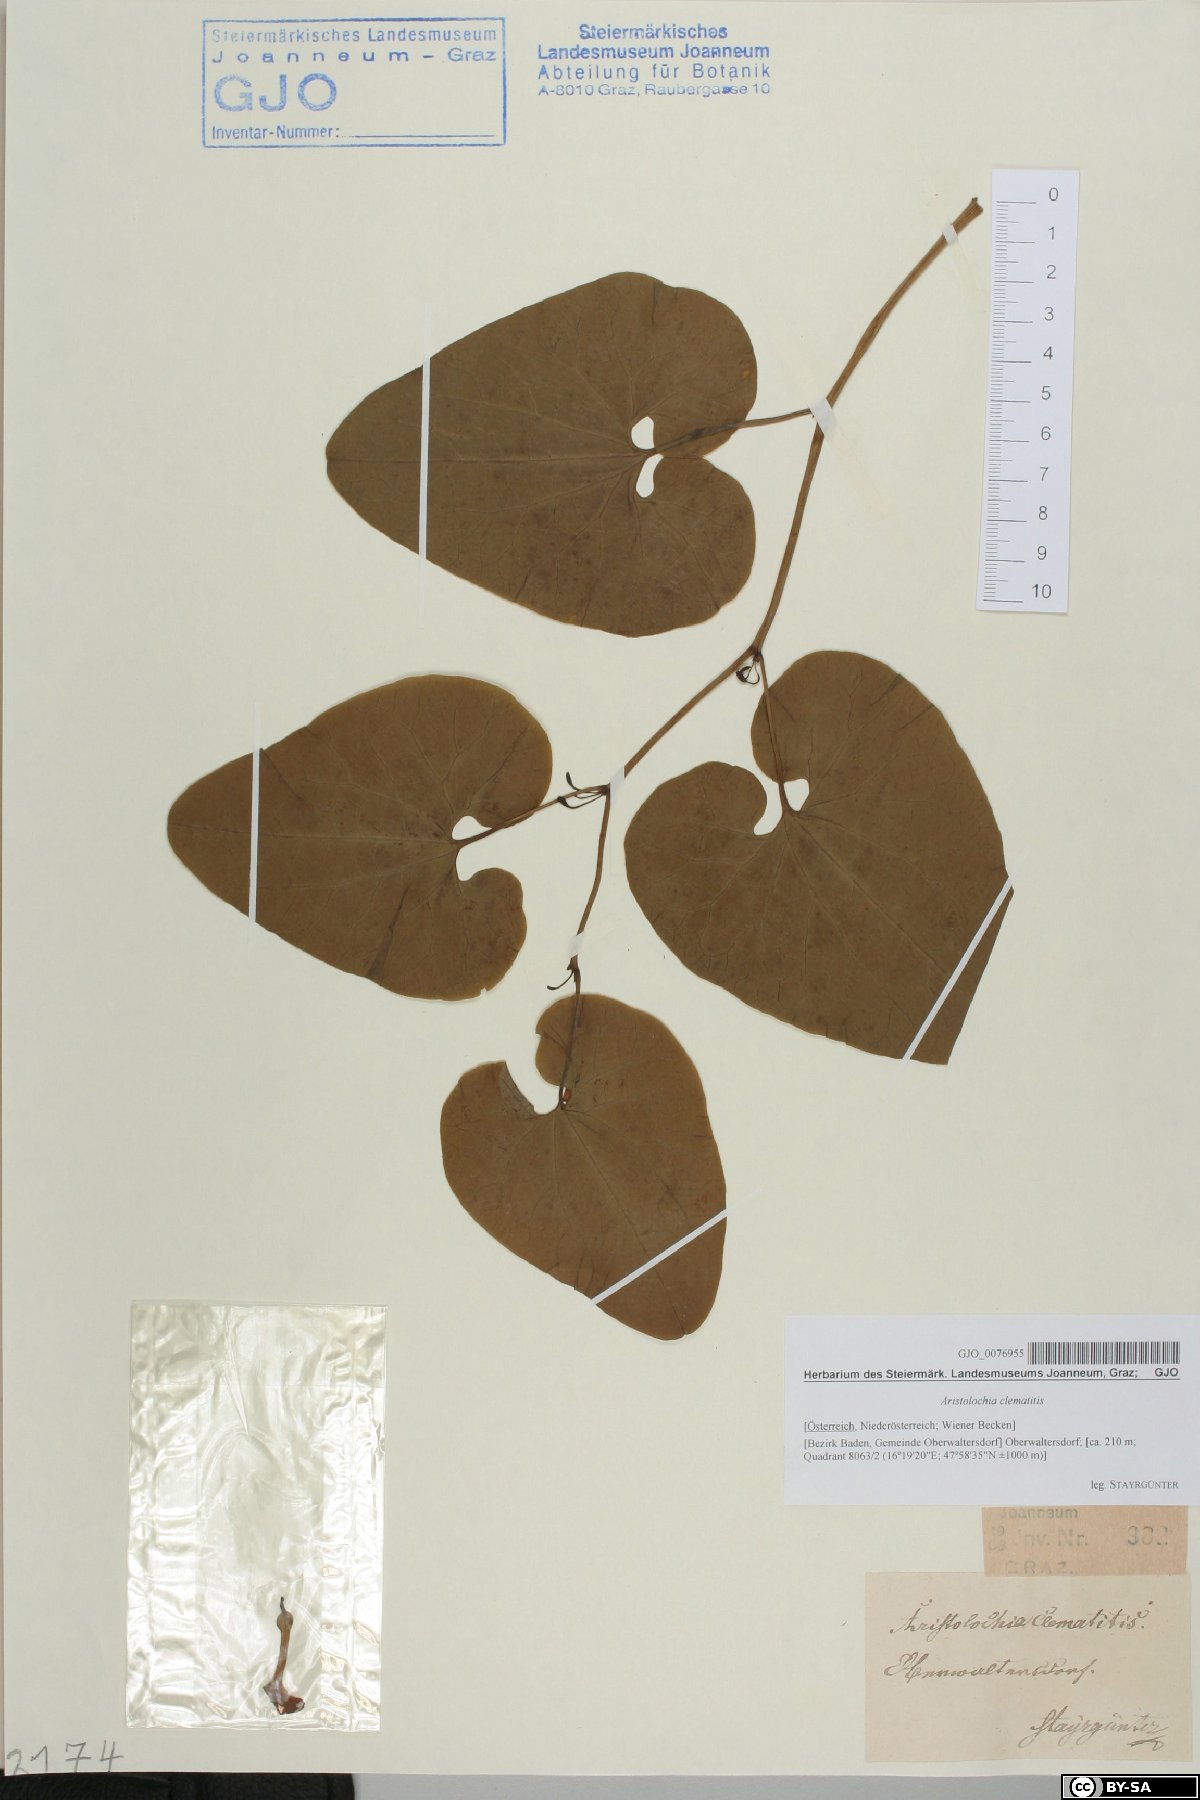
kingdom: Plantae
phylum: Tracheophyta
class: Magnoliopsida
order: Piperales
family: Aristolochiaceae
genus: Aristolochia
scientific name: Aristolochia clematitis
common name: Birthwort
